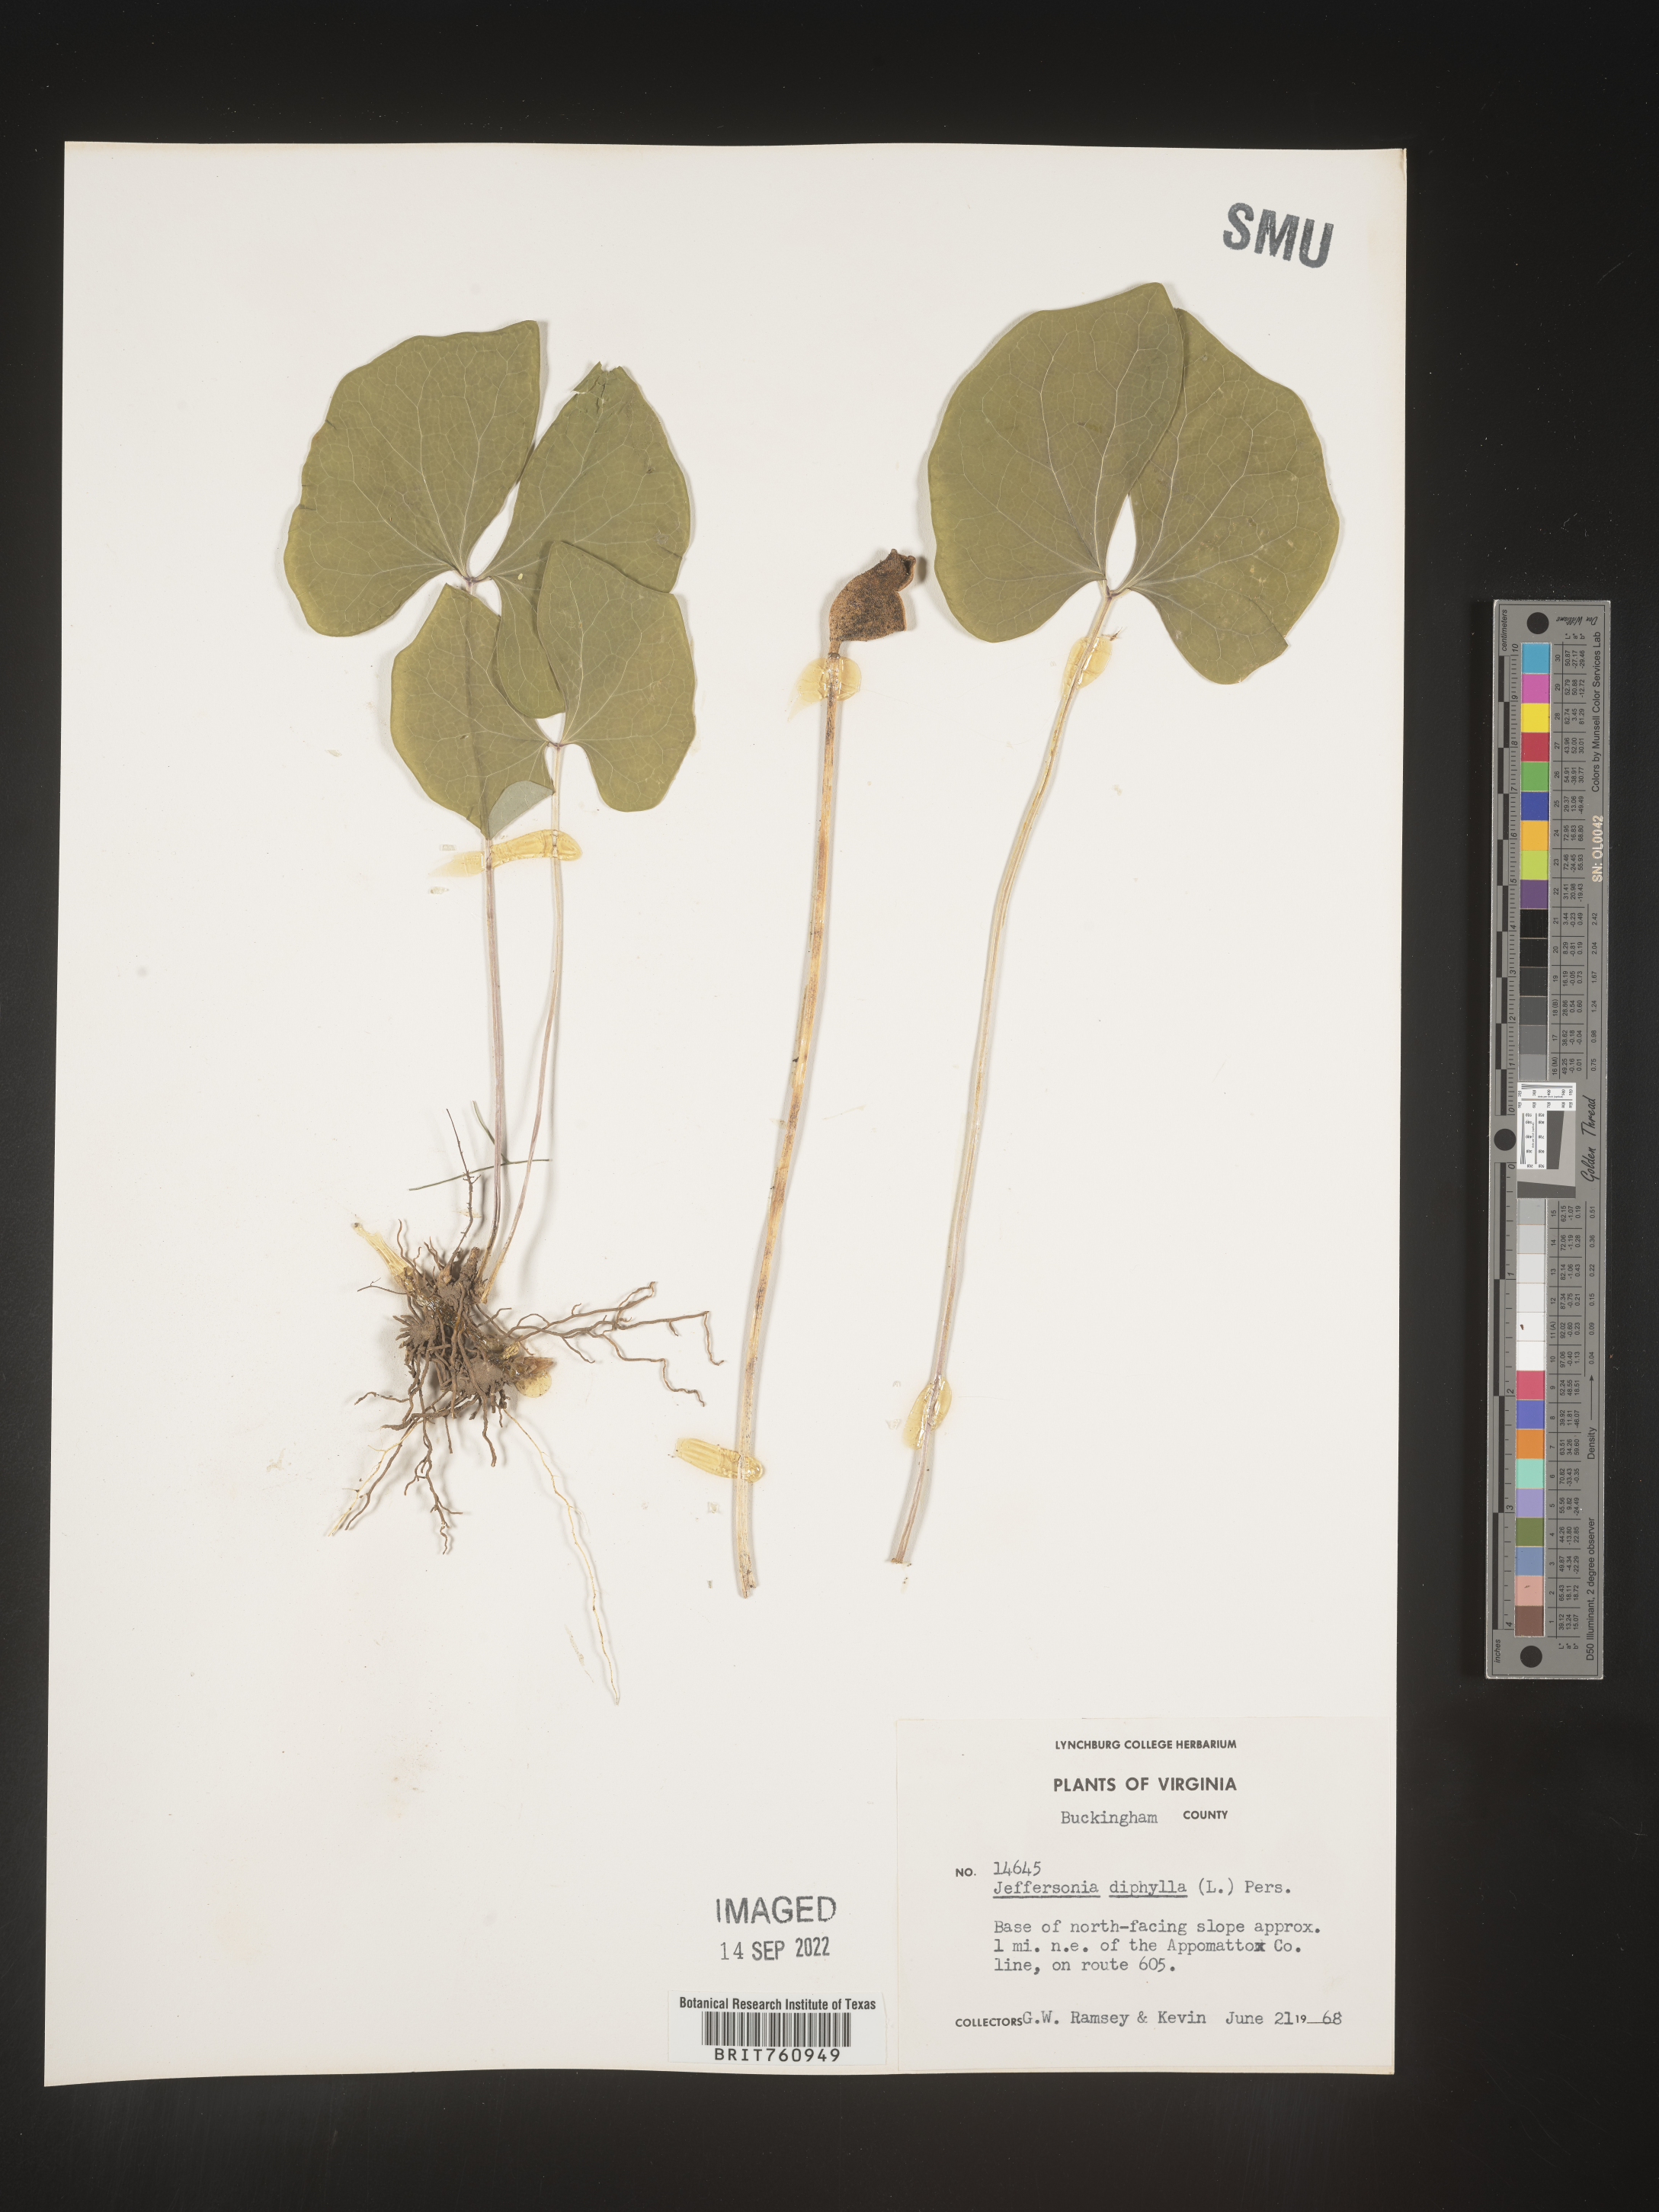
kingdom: Plantae
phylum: Tracheophyta
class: Magnoliopsida
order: Ranunculales
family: Berberidaceae
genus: Jeffersonia
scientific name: Jeffersonia
